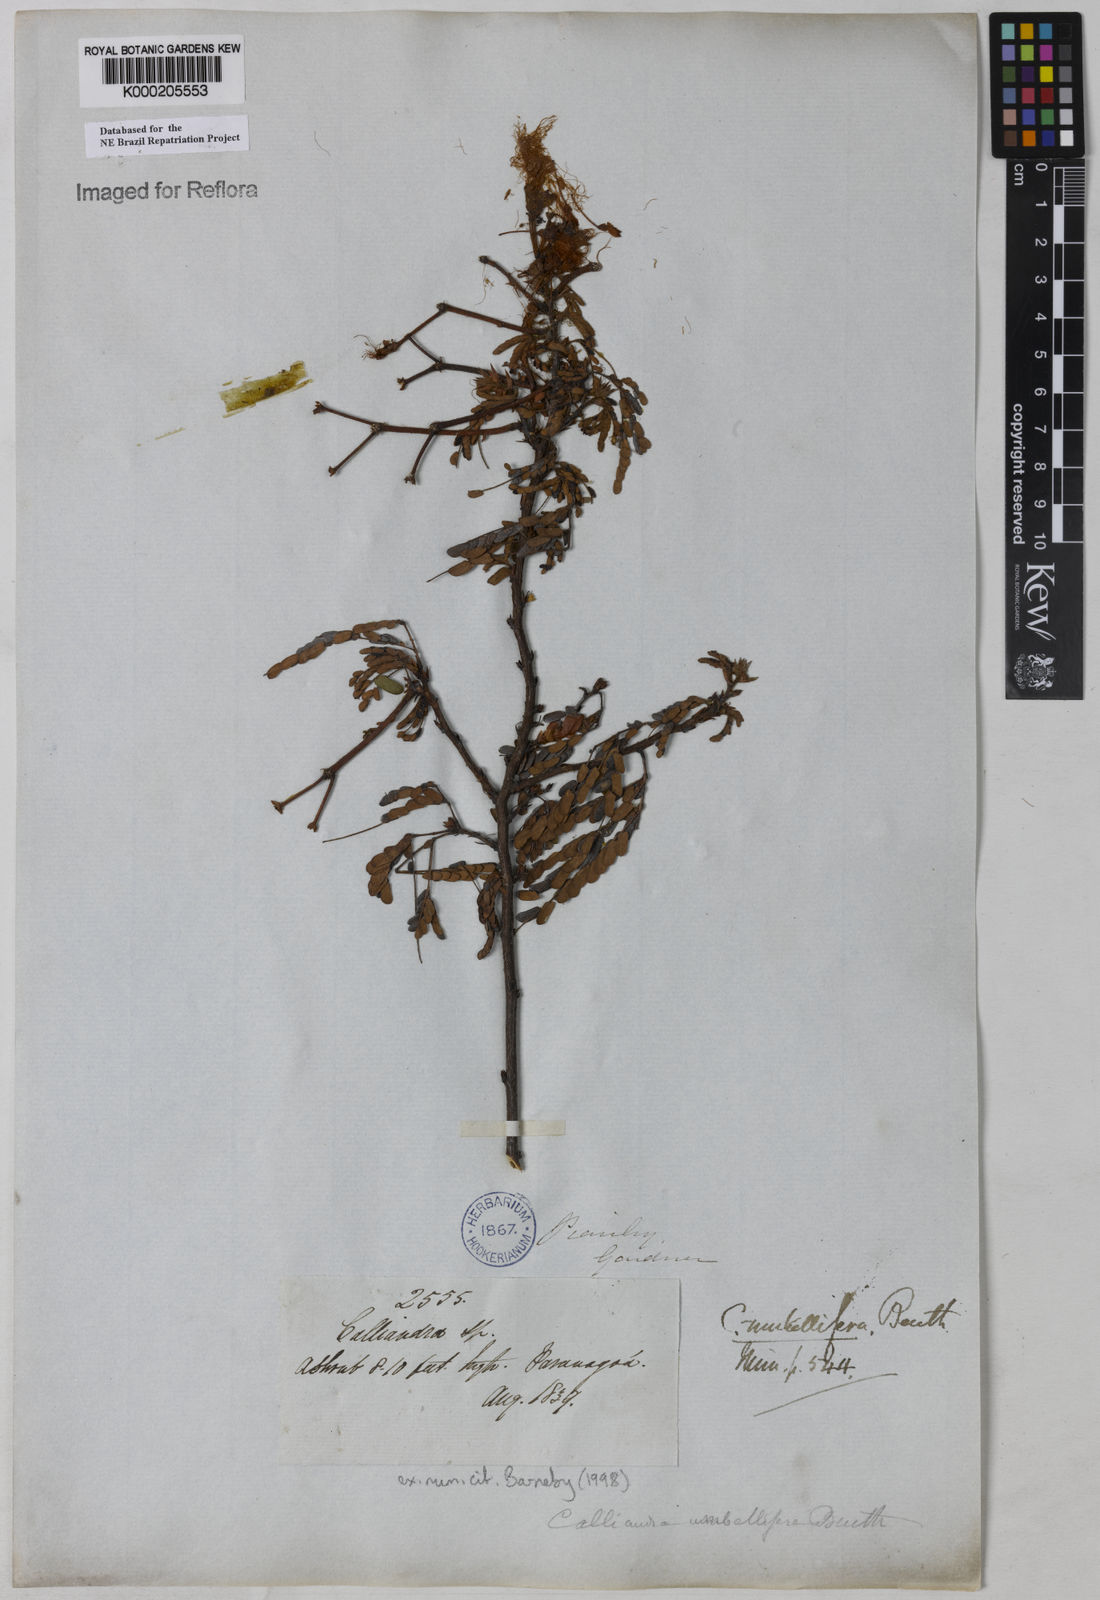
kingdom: Plantae
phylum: Tracheophyta
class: Magnoliopsida
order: Fabales
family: Fabaceae
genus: Calliandra
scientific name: Calliandra umbellifera
